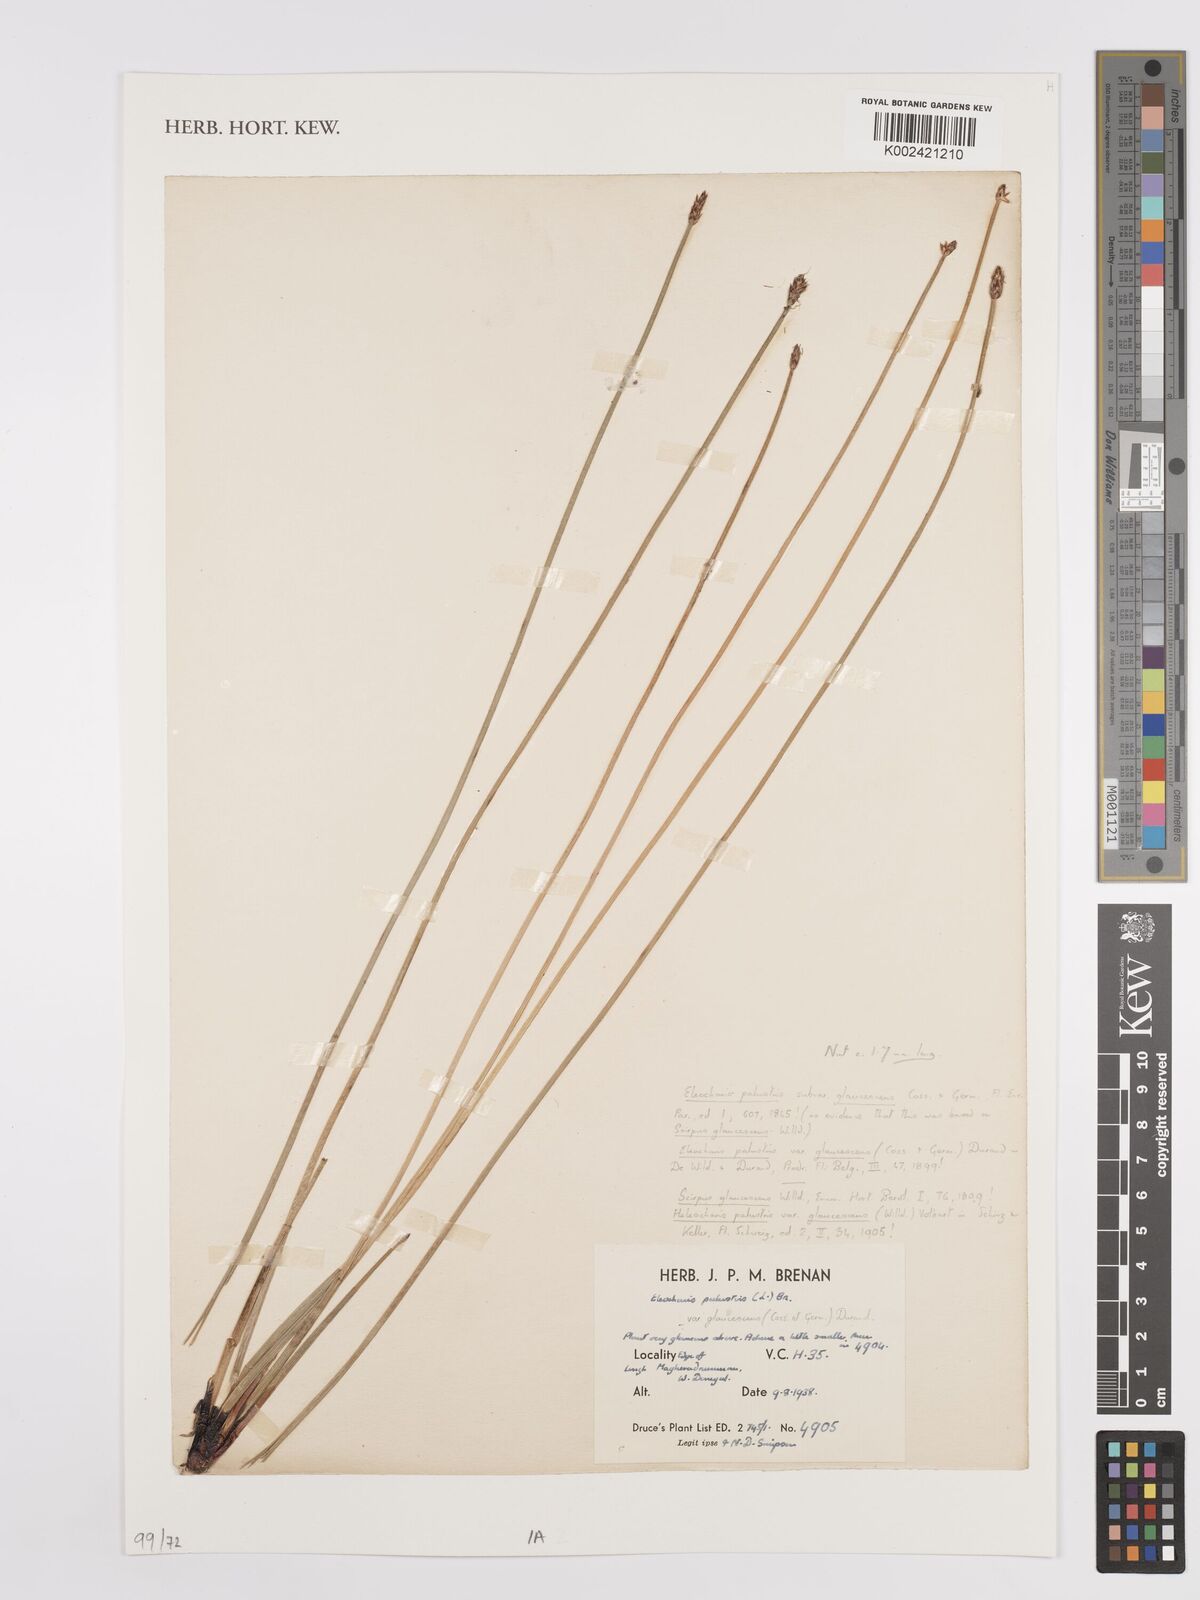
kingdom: Plantae
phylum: Tracheophyta
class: Liliopsida
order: Poales
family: Cyperaceae
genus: Eleocharis
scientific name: Eleocharis palustris
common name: Common spike-rush
